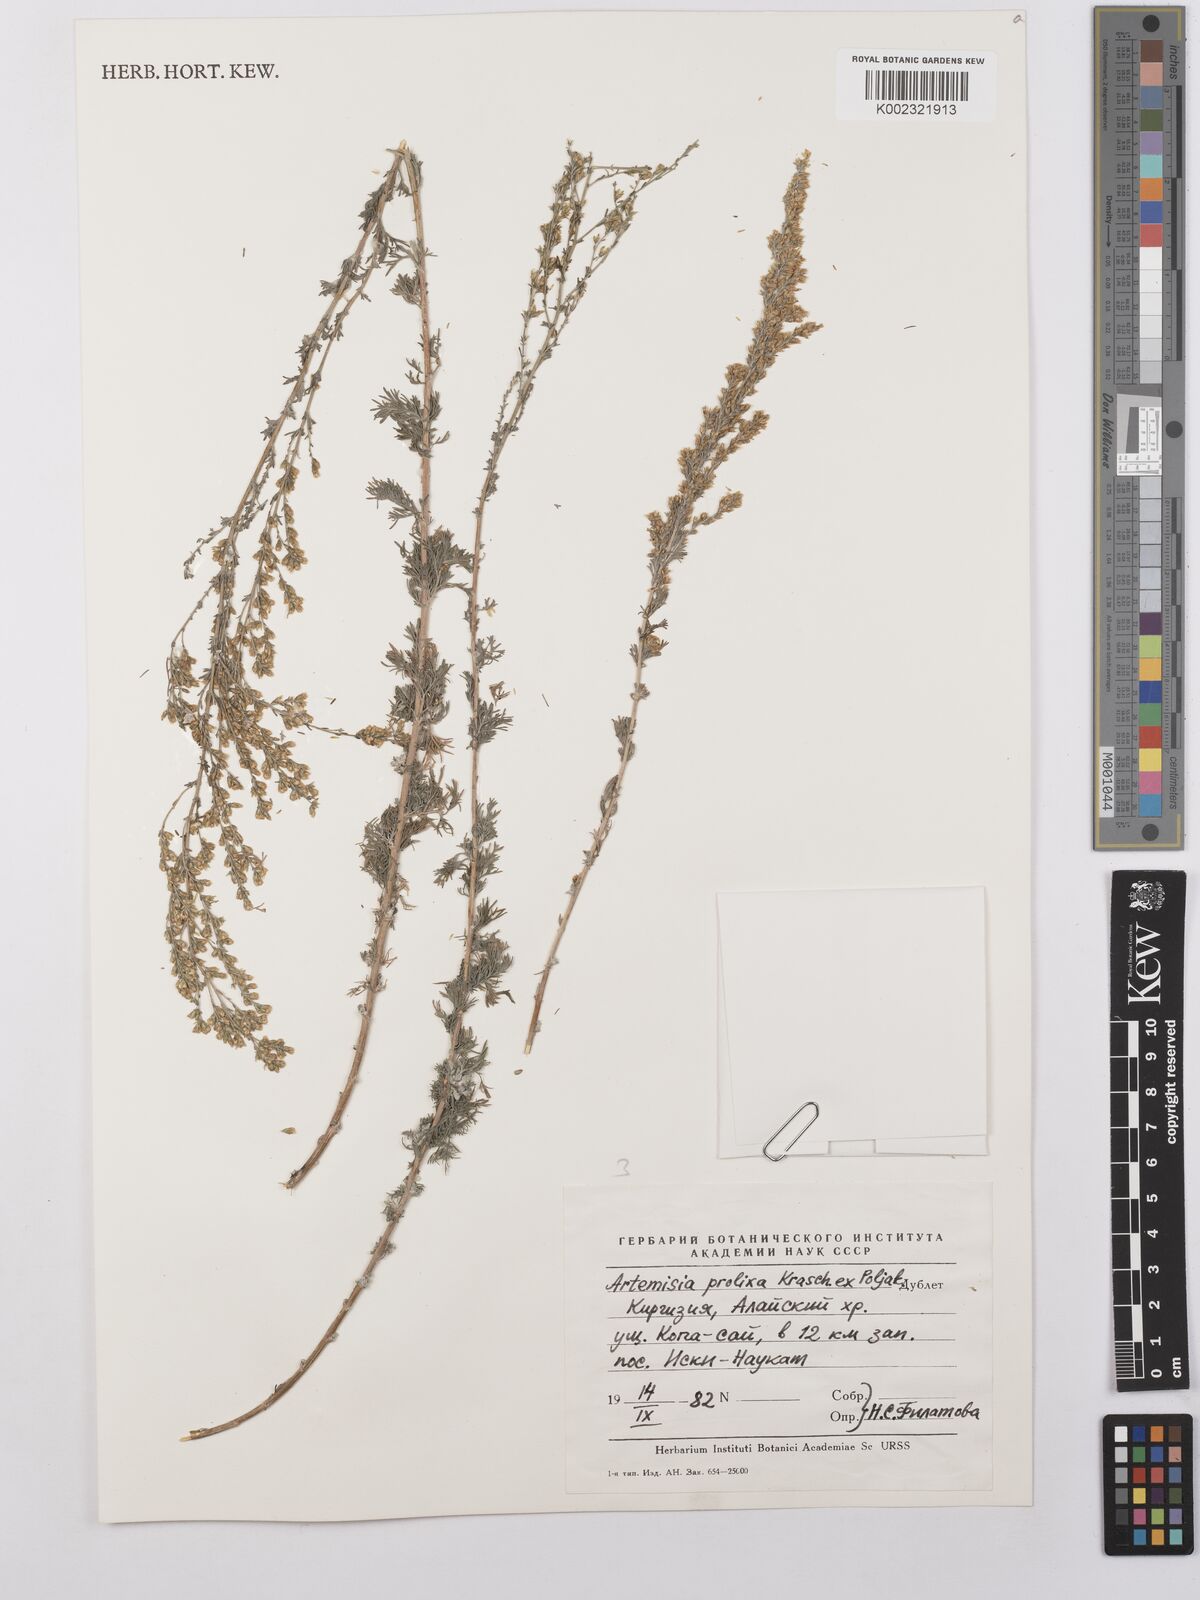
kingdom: Plantae
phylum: Tracheophyta
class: Magnoliopsida
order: Asterales
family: Asteraceae
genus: Artemisia
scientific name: Artemisia prolixa
